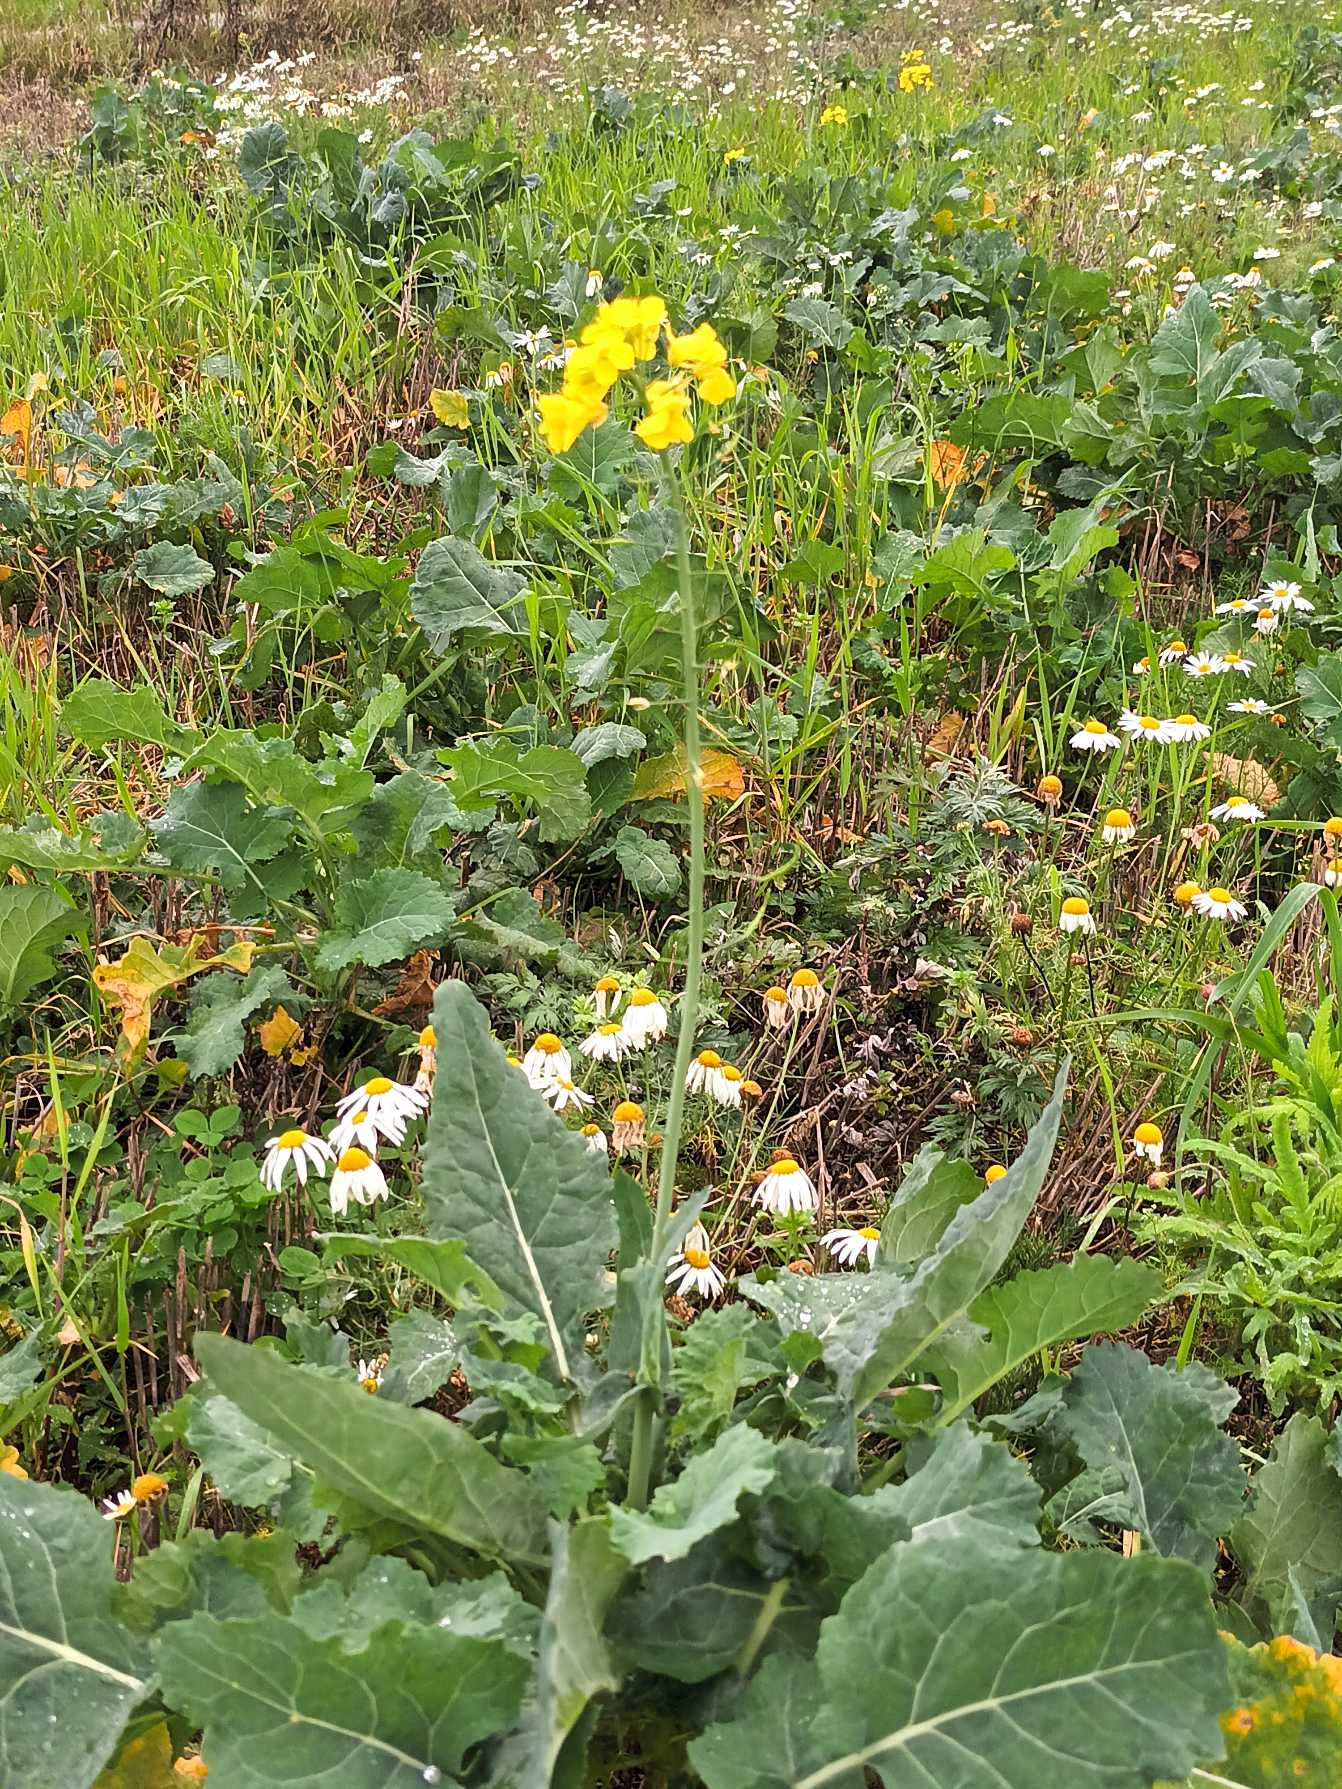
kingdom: Plantae
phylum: Tracheophyta
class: Magnoliopsida
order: Brassicales
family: Brassicaceae
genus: Brassica
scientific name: Brassica rapa
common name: Ager-kål
